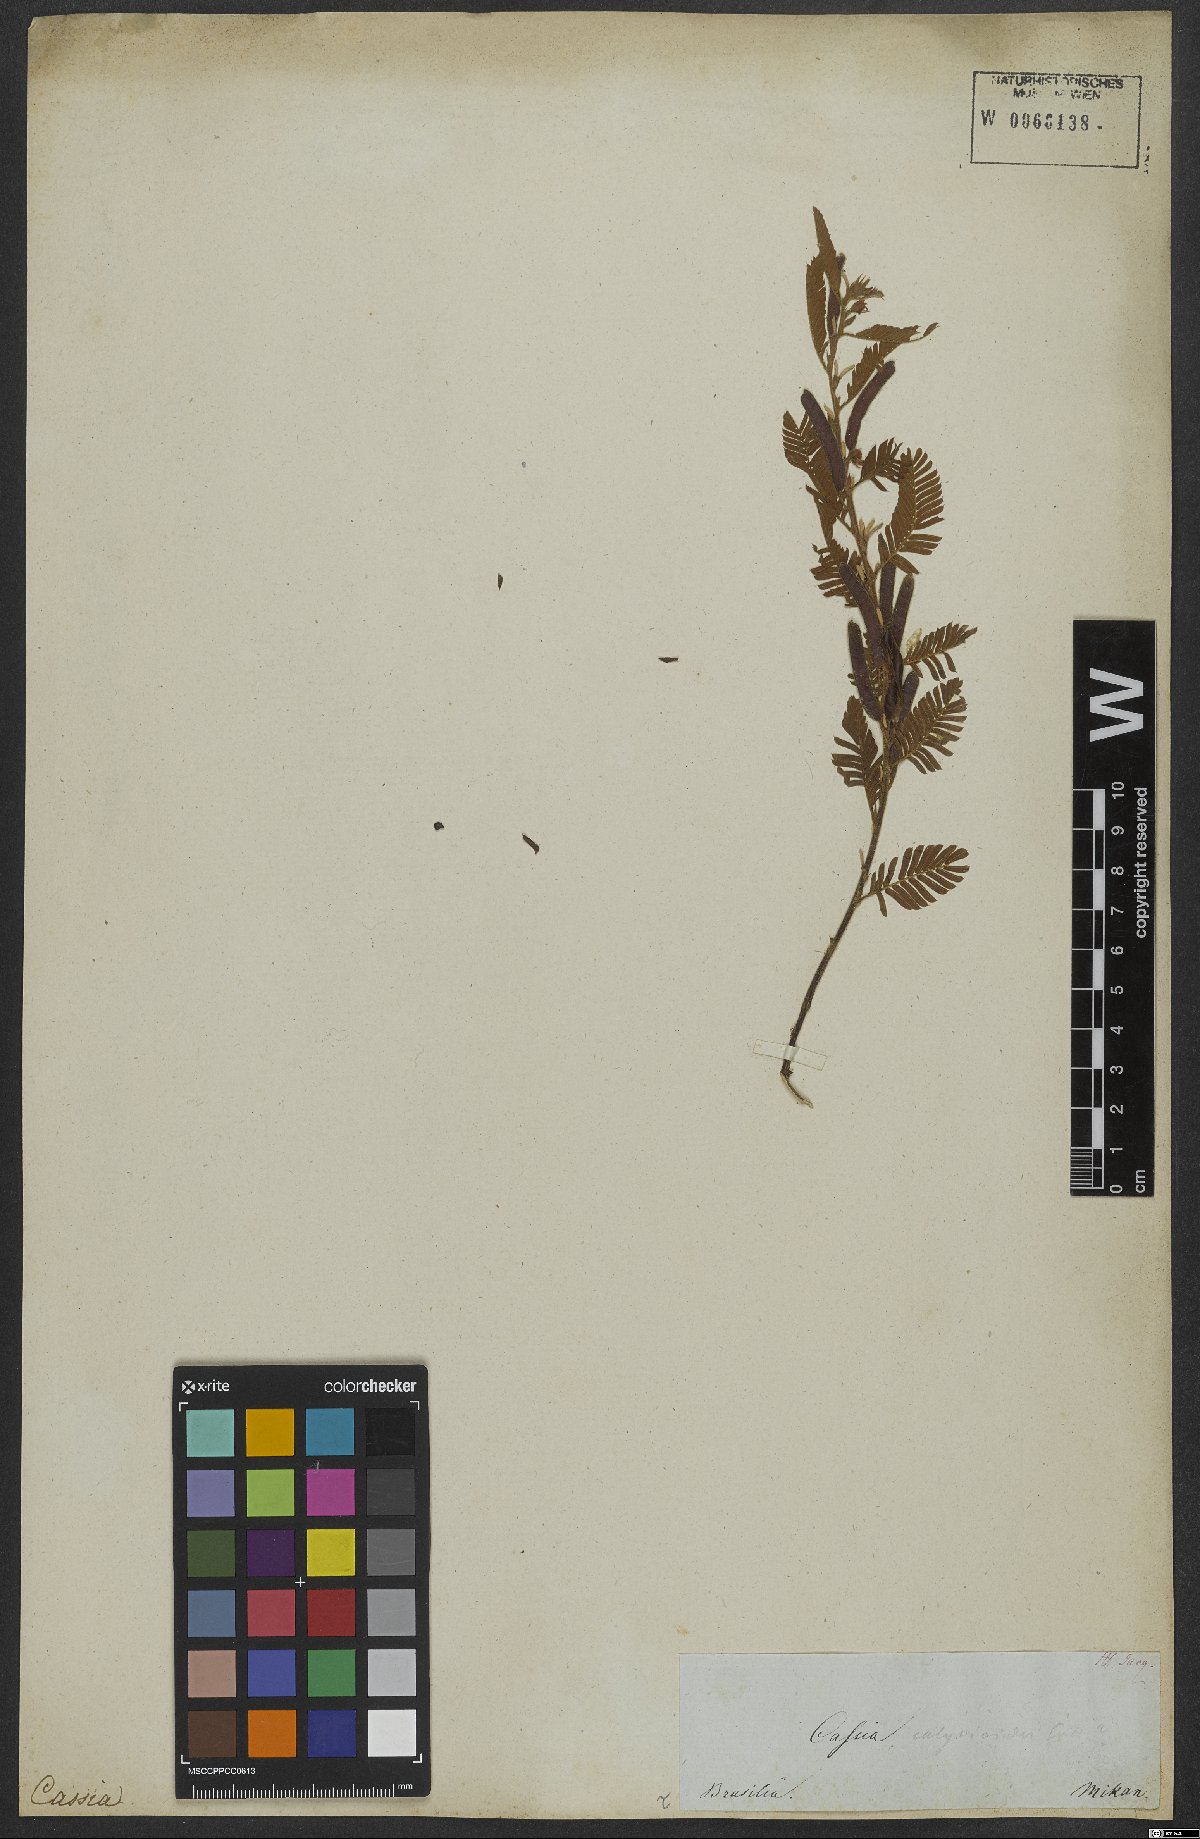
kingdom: Plantae
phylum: Tracheophyta
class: Magnoliopsida
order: Fabales
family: Fabaceae
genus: Chamaecrista
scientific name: Chamaecrista nictitans
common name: Sensitive cassia
